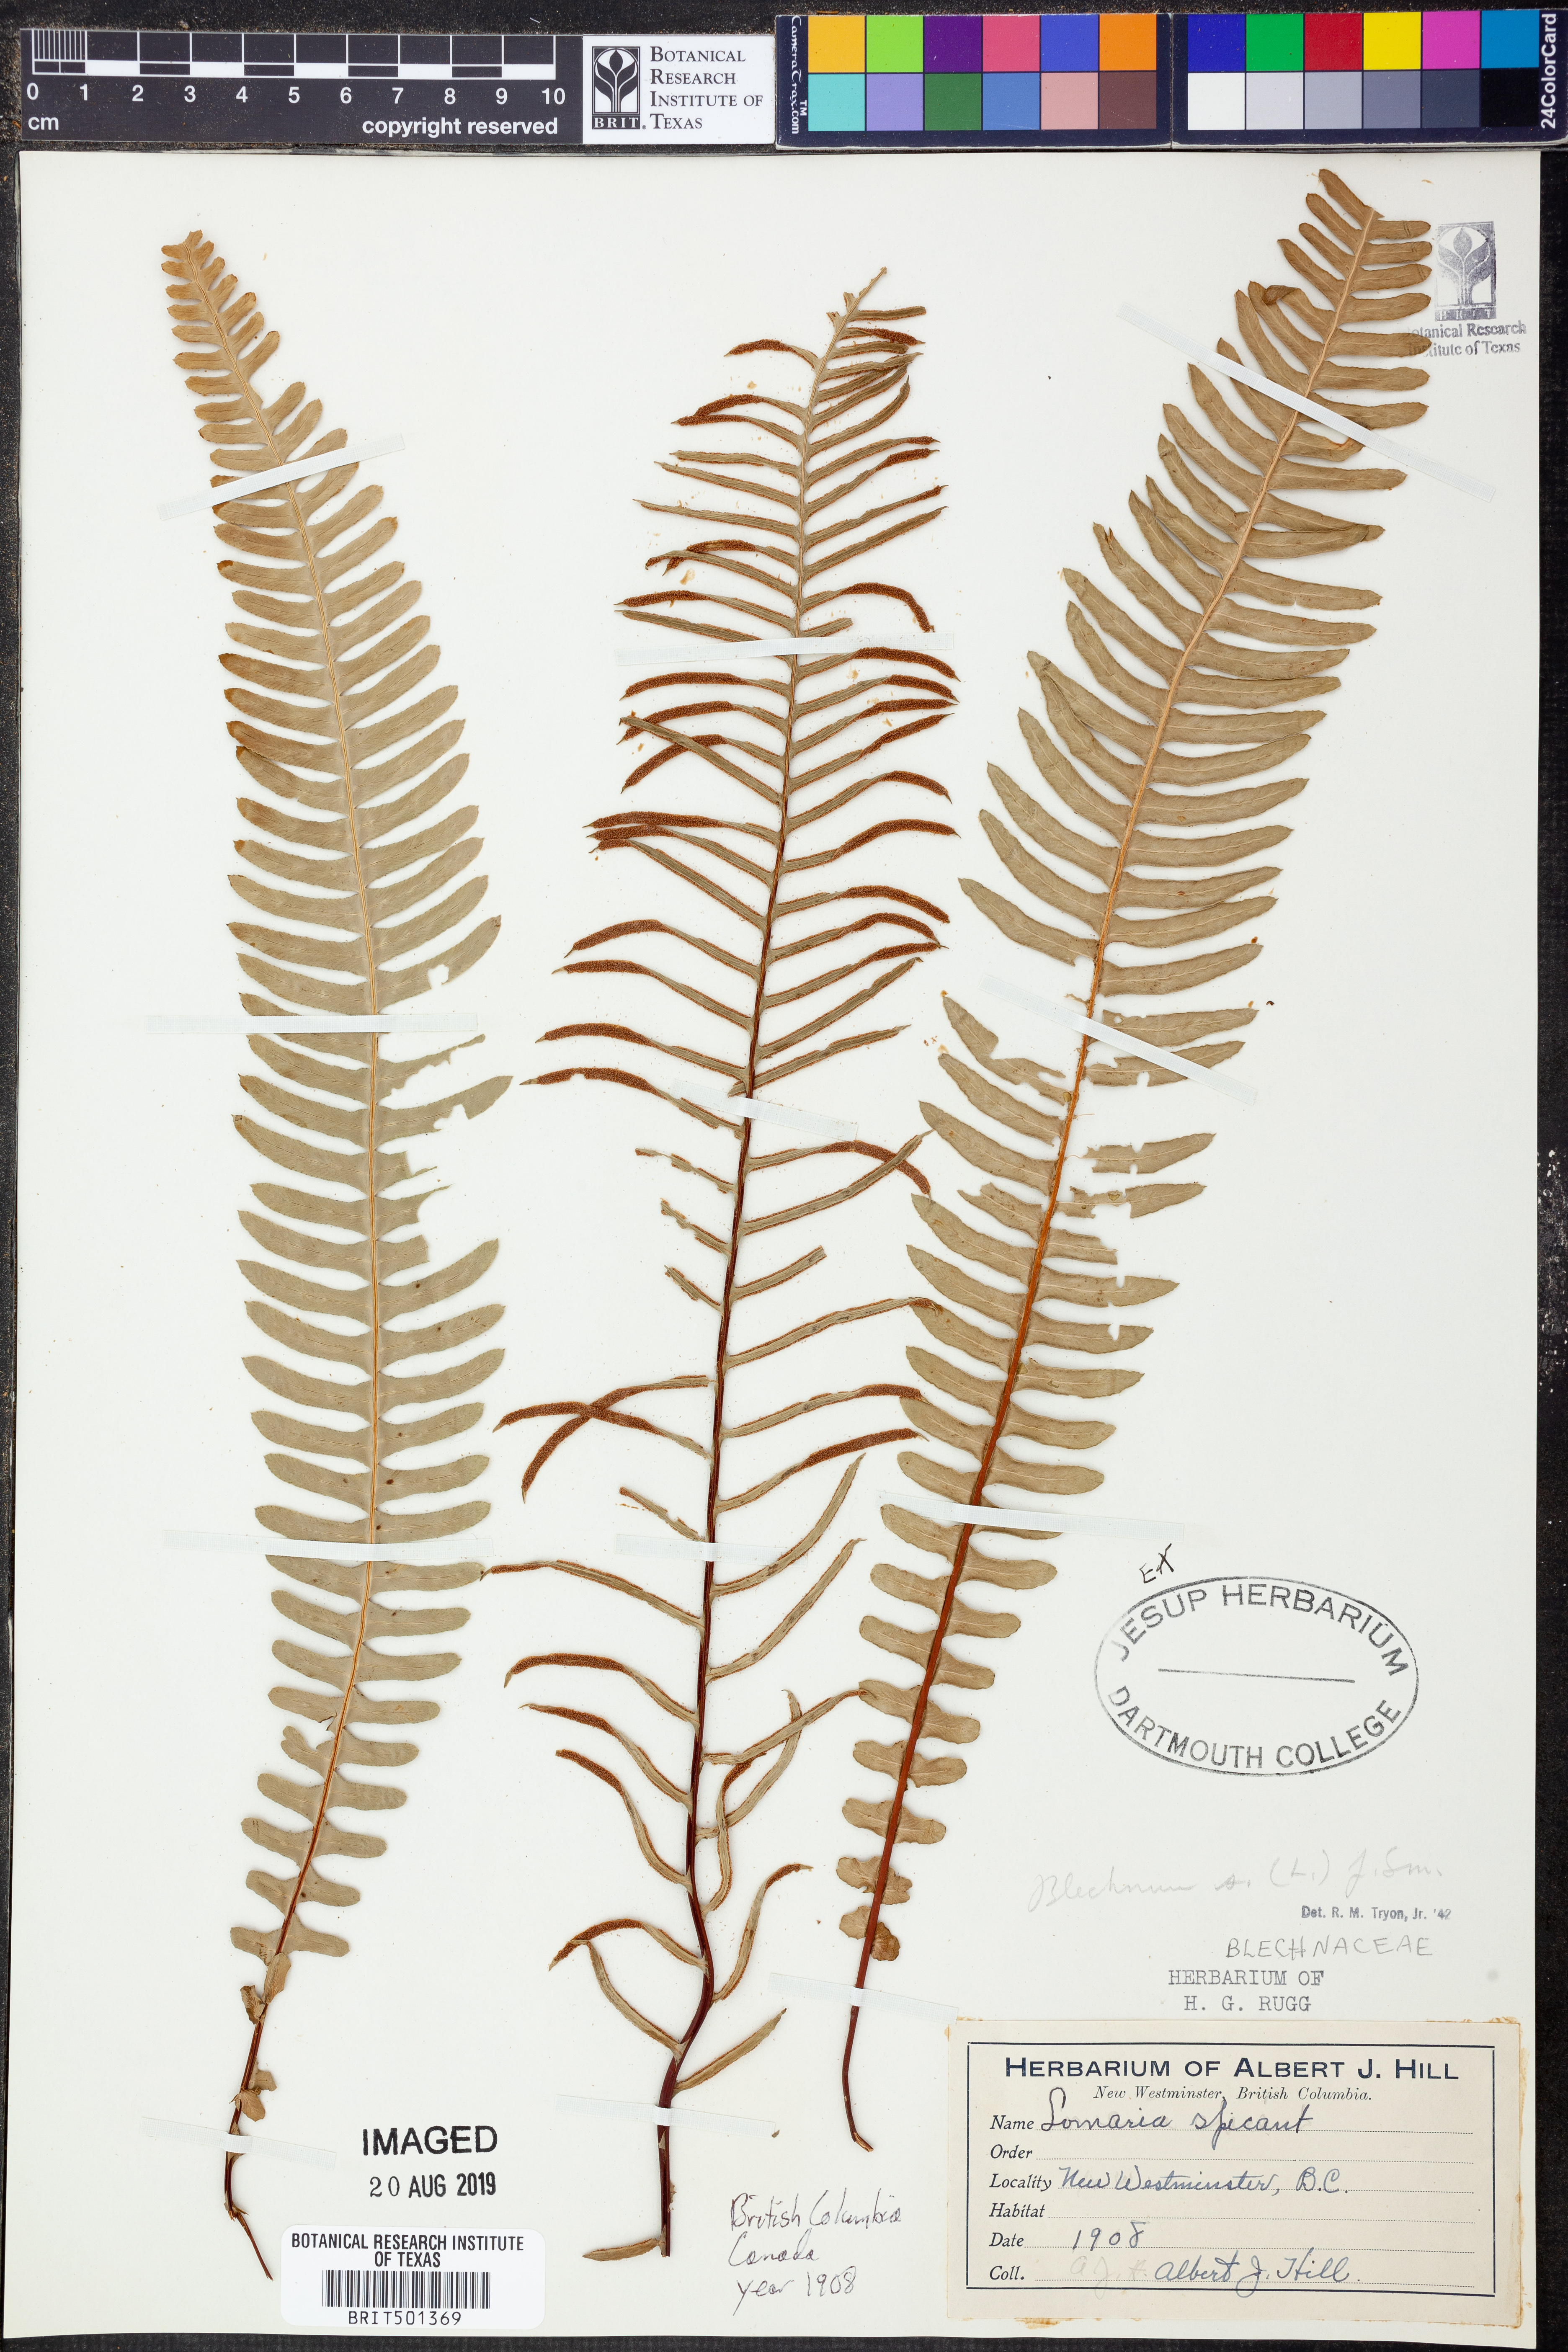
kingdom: Plantae
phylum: Tracheophyta
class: Polypodiopsida
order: Polypodiales
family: Blechnaceae
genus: Struthiopteris
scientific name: Struthiopteris spicant
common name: Deer fern
